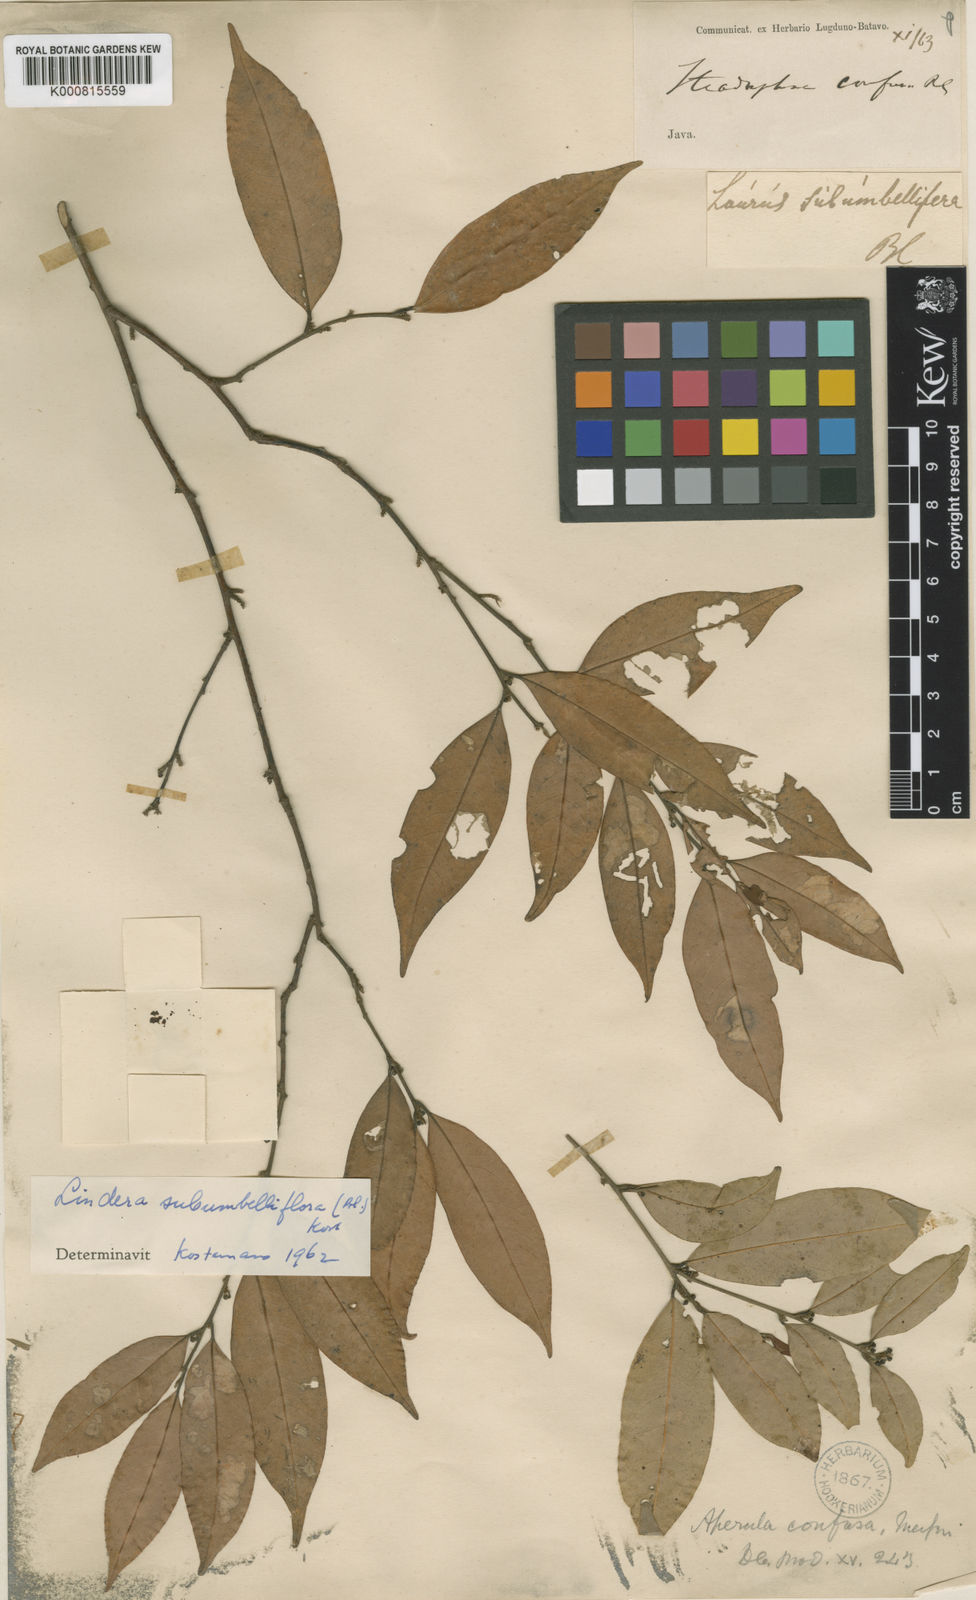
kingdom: Plantae
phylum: Tracheophyta
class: Magnoliopsida
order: Laurales
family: Lauraceae
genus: Litsea
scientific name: Litsea subumbelliflora
